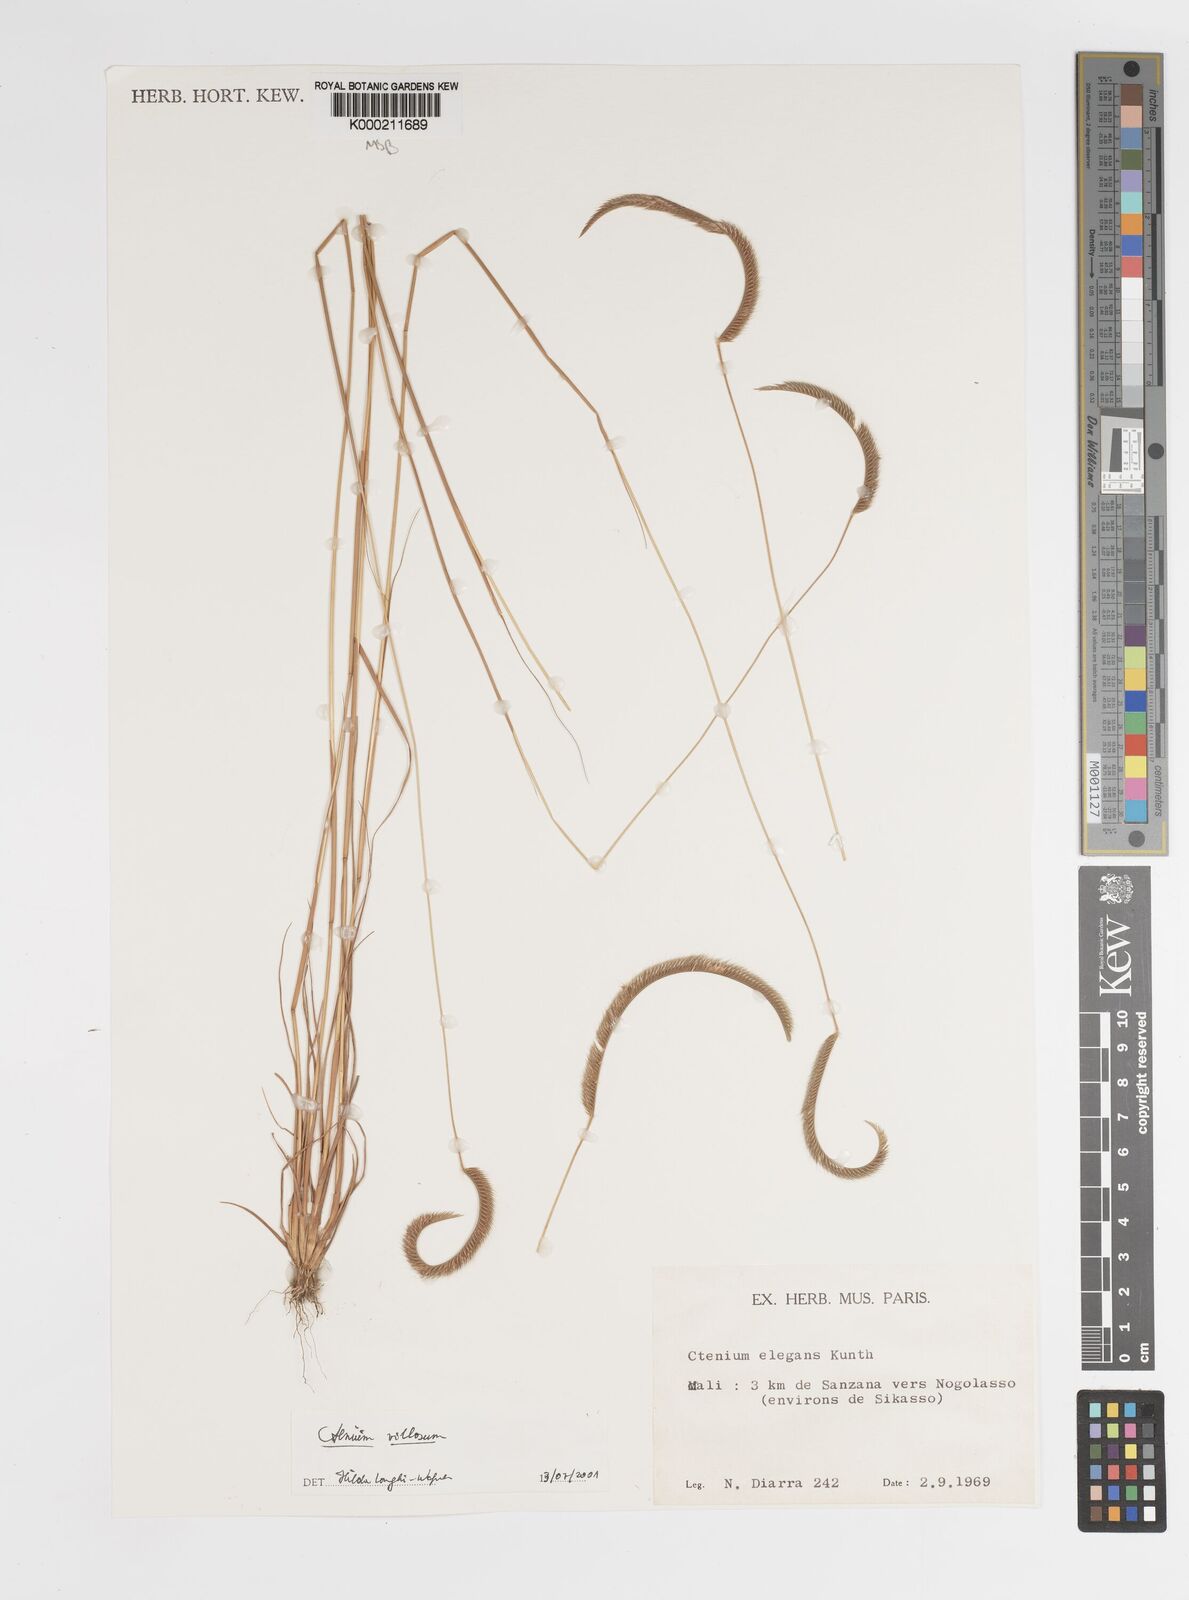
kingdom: Plantae
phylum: Tracheophyta
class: Liliopsida
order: Poales
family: Poaceae
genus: Ctenium
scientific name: Ctenium villosum
